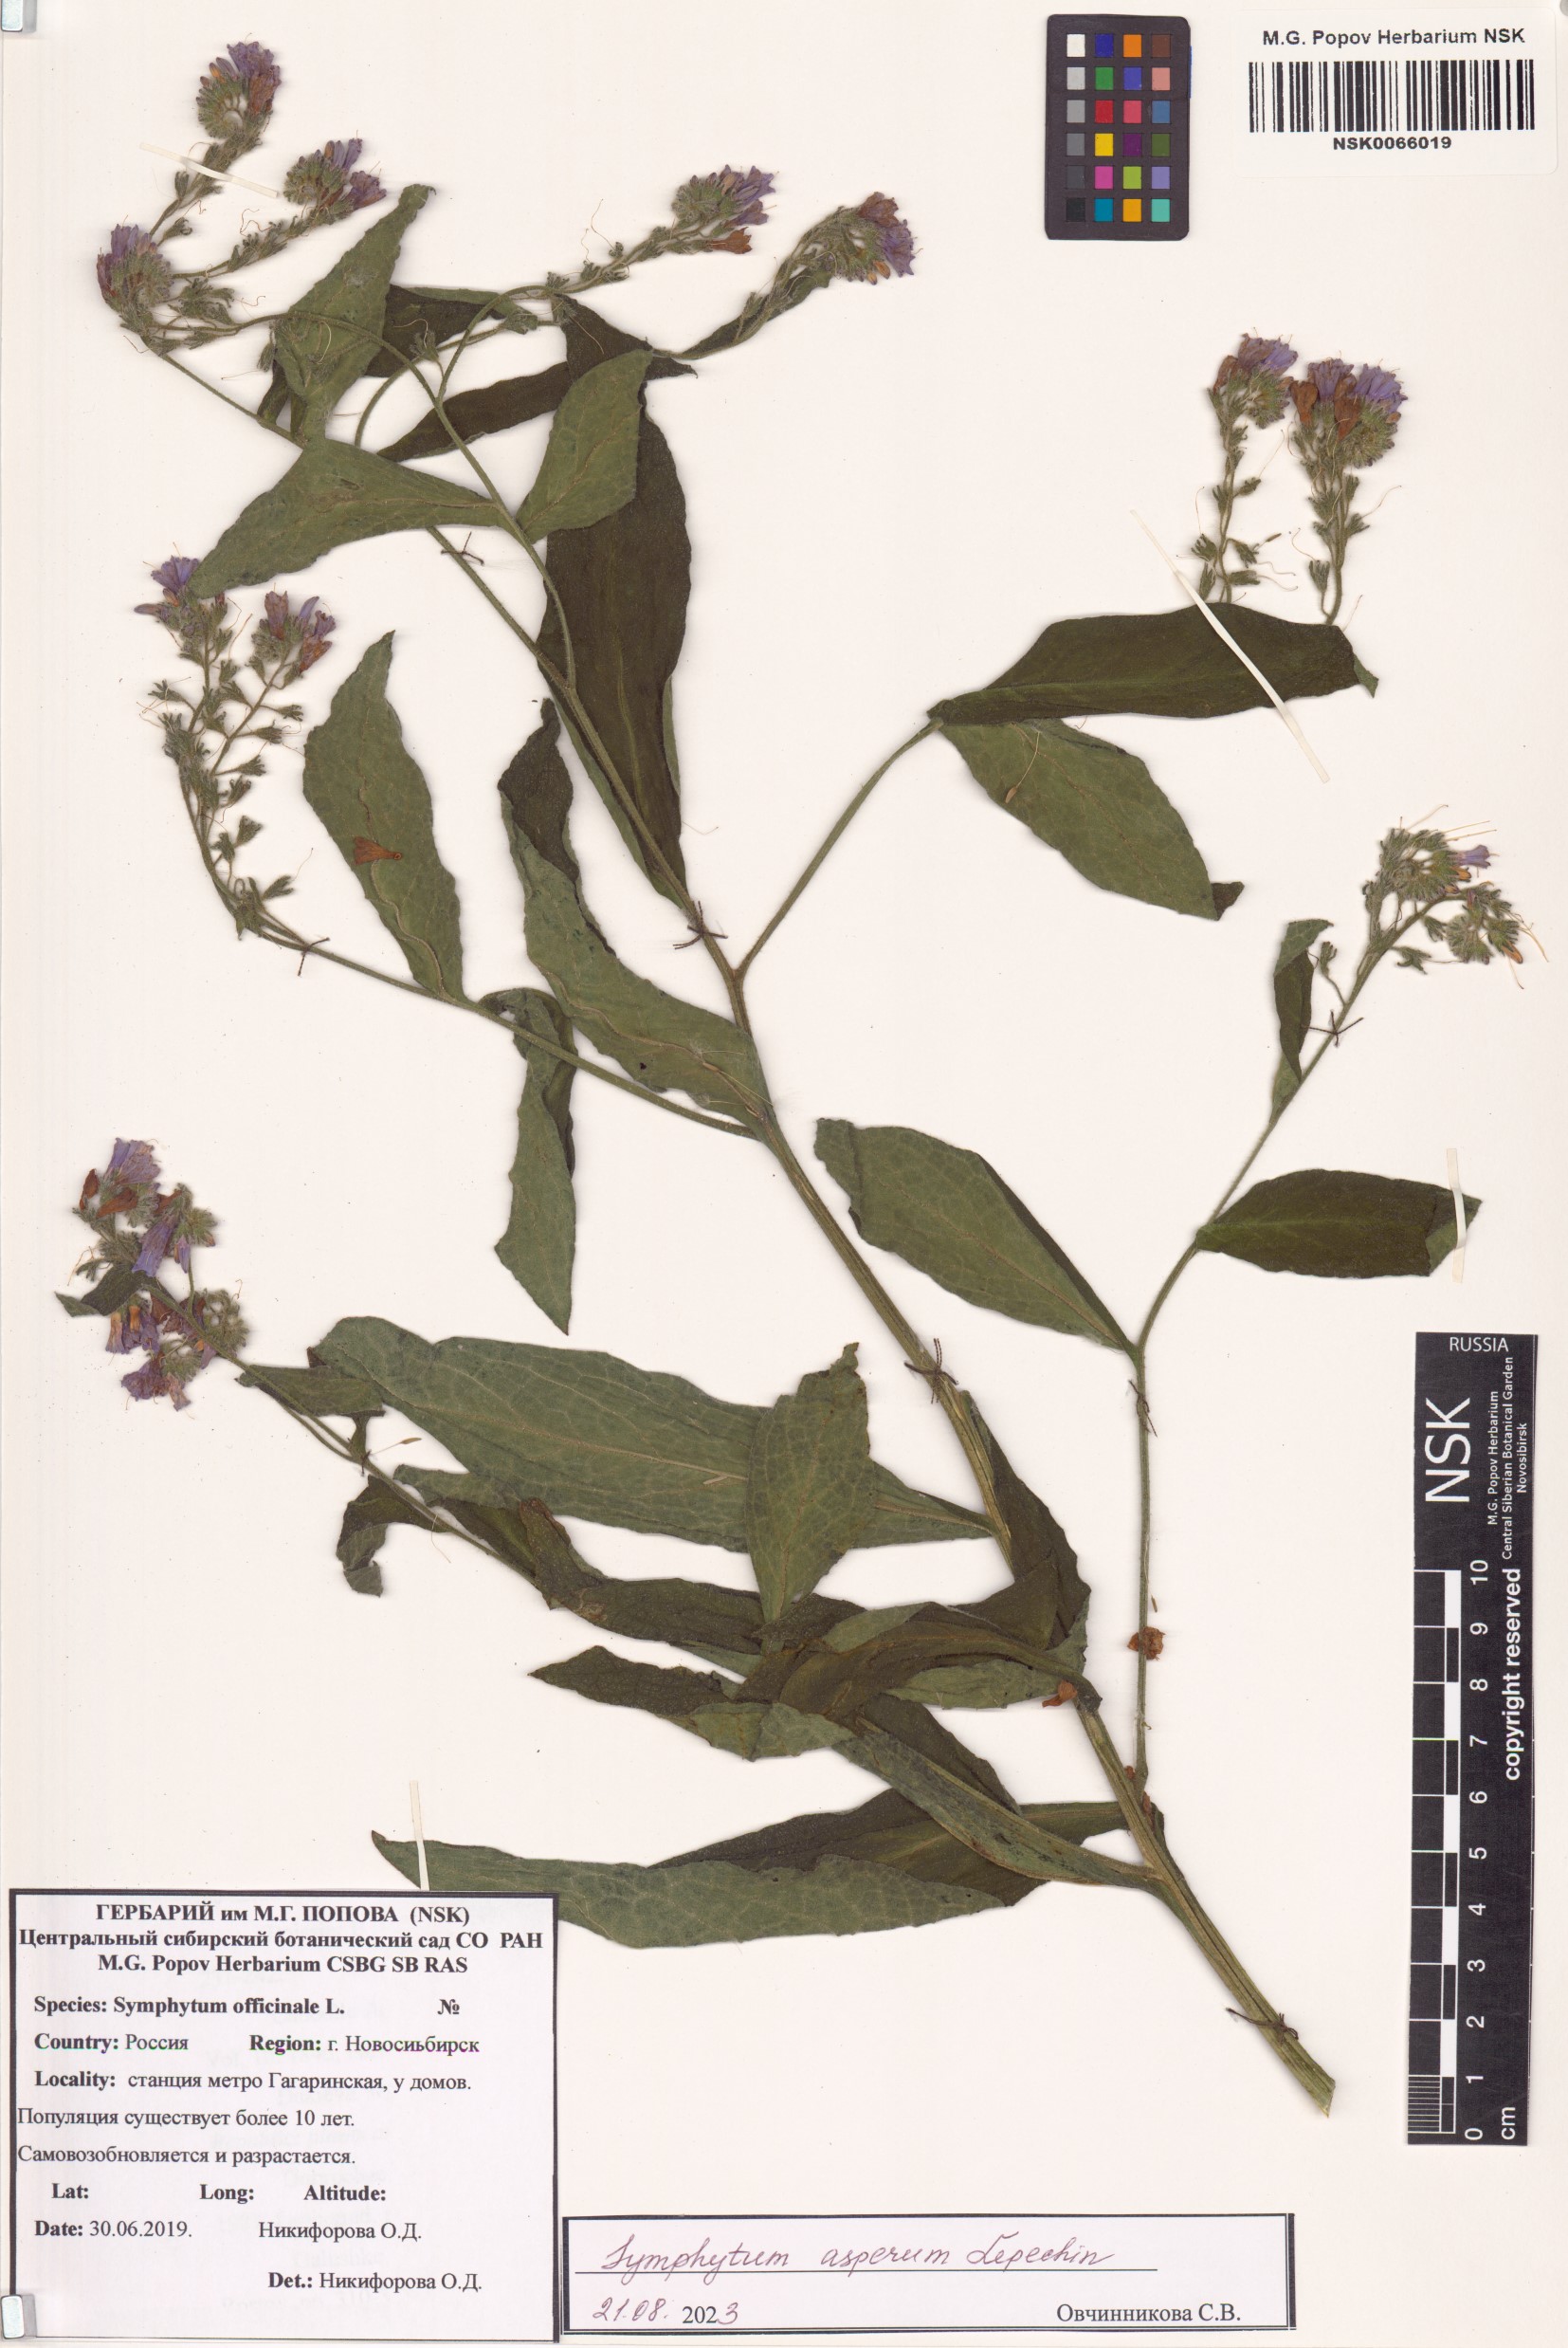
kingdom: Plantae
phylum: Tracheophyta
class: Magnoliopsida
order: Boraginales
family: Boraginaceae
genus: Symphytum
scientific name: Symphytum officinale
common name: Common comfrey
